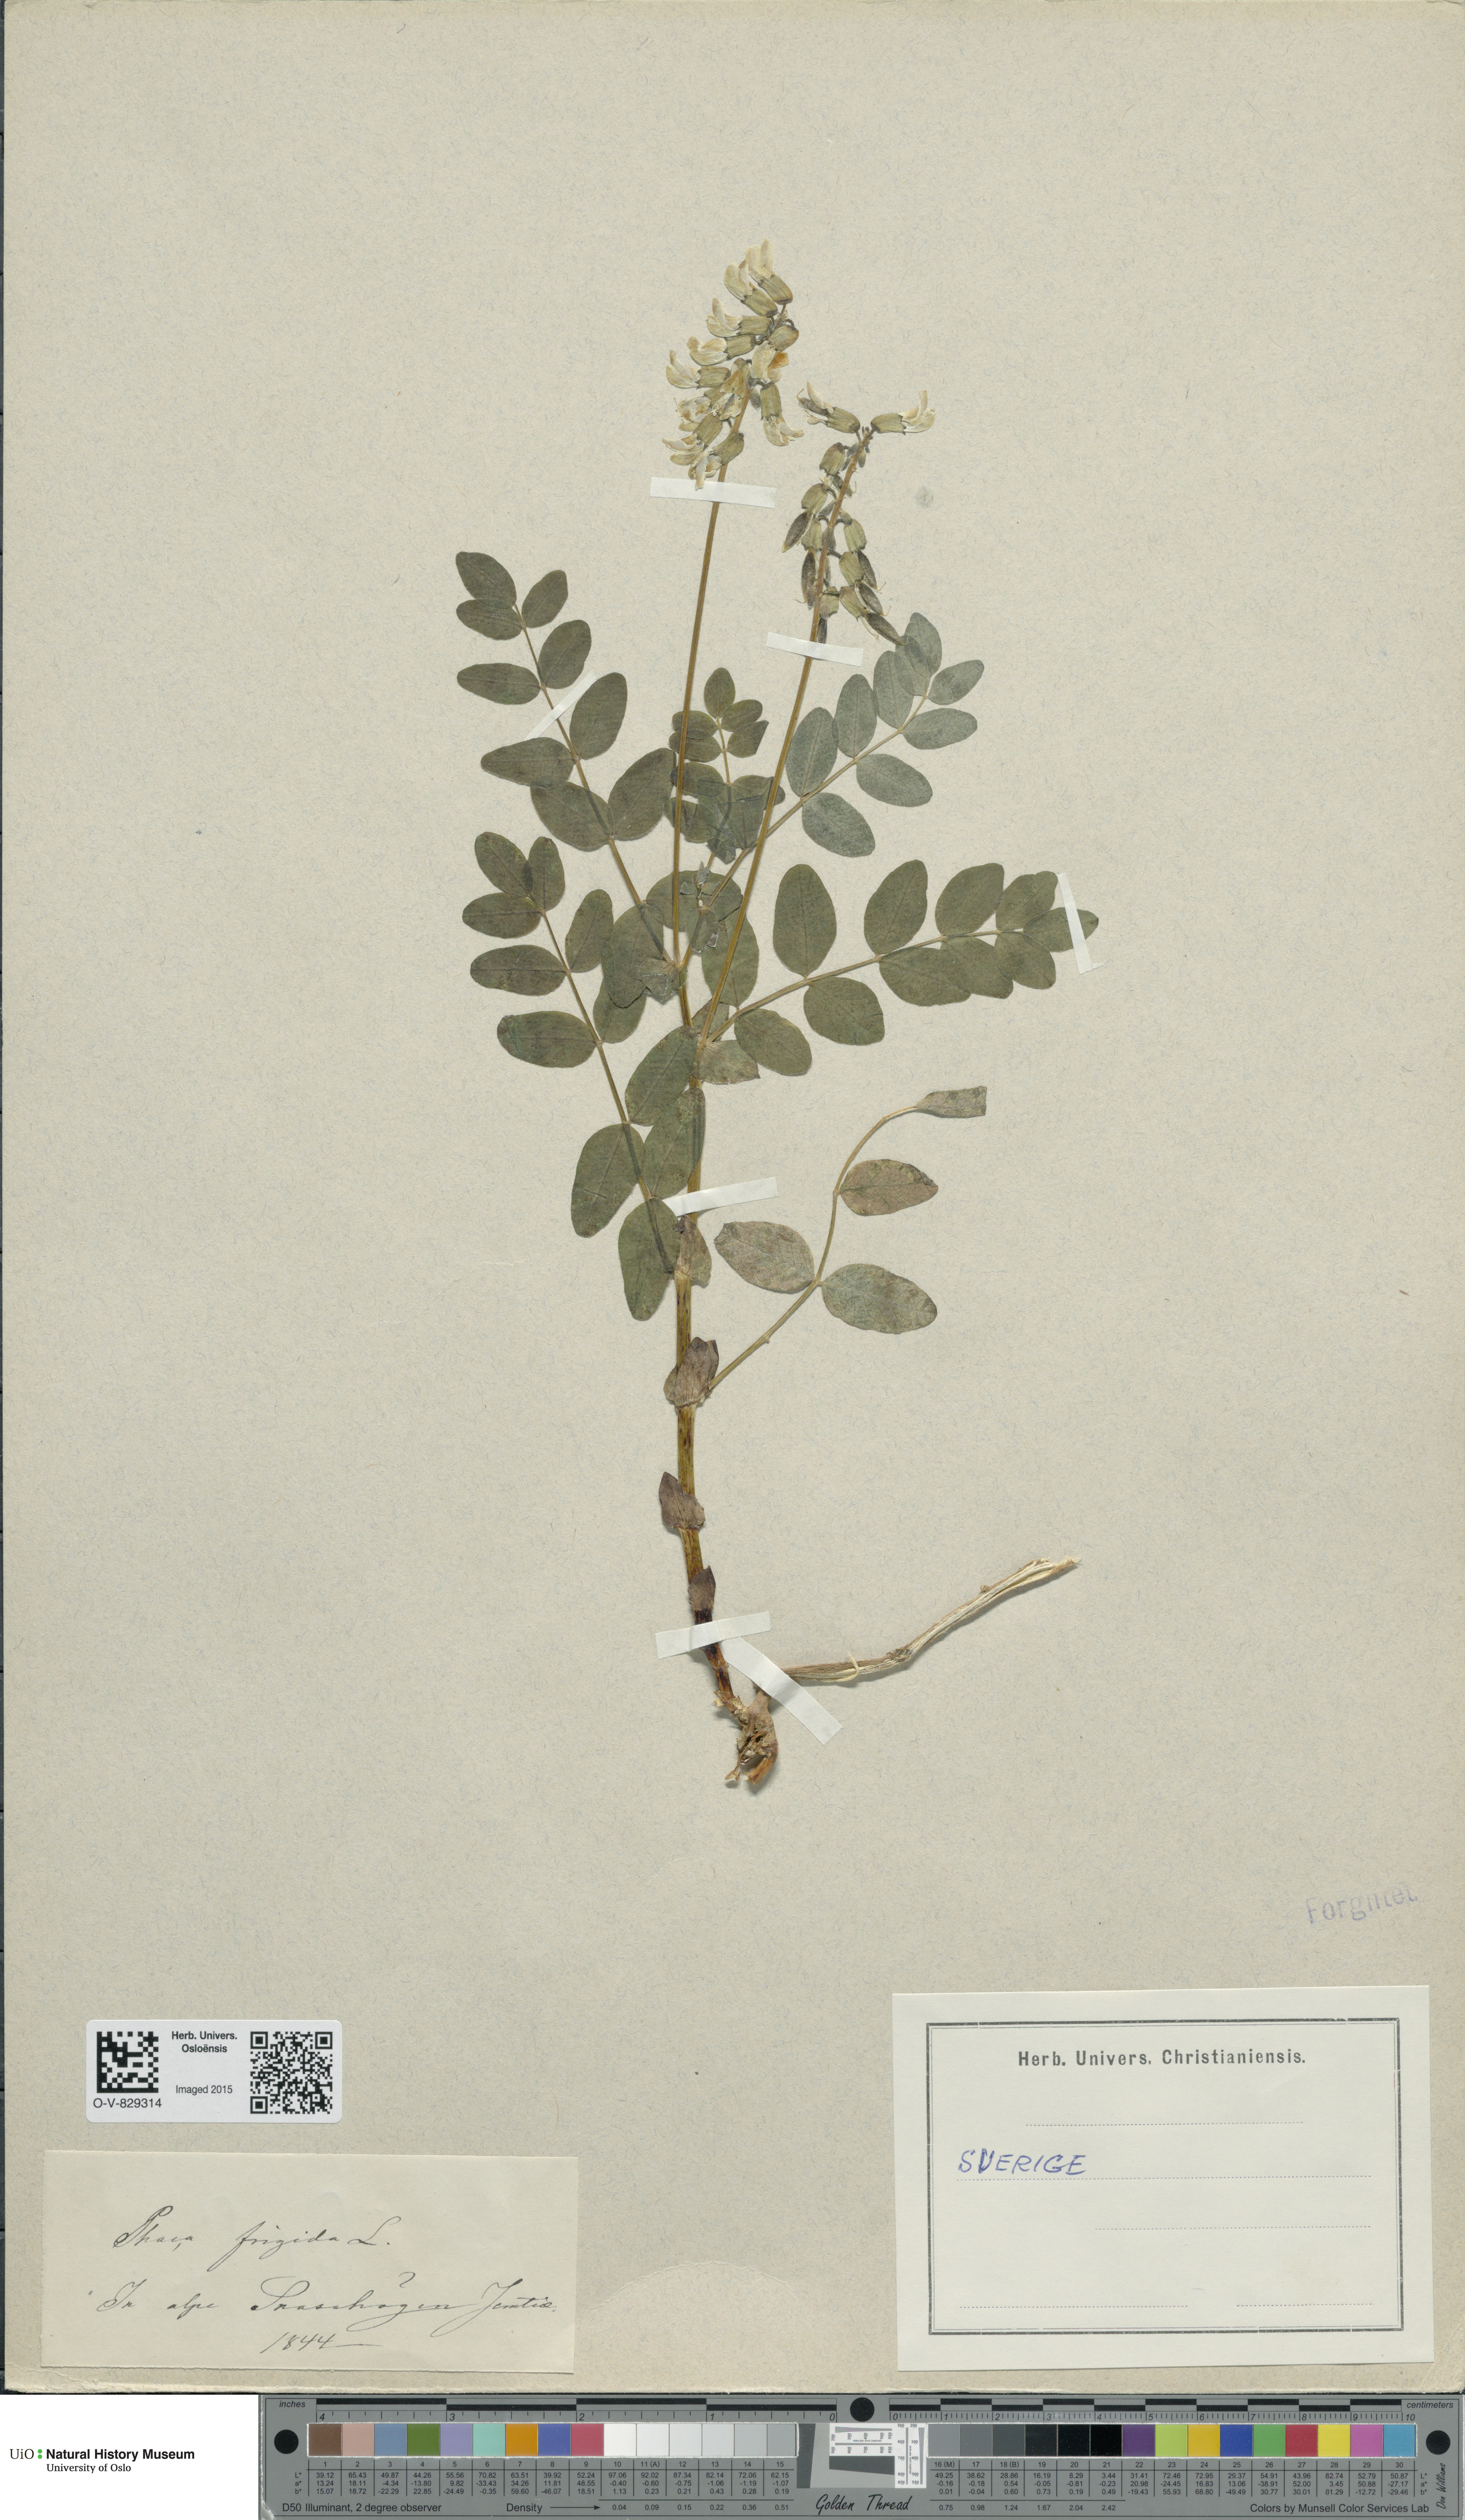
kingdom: Plantae
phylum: Tracheophyta
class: Magnoliopsida
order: Fabales
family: Fabaceae
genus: Astragalus
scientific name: Astragalus frigidus
